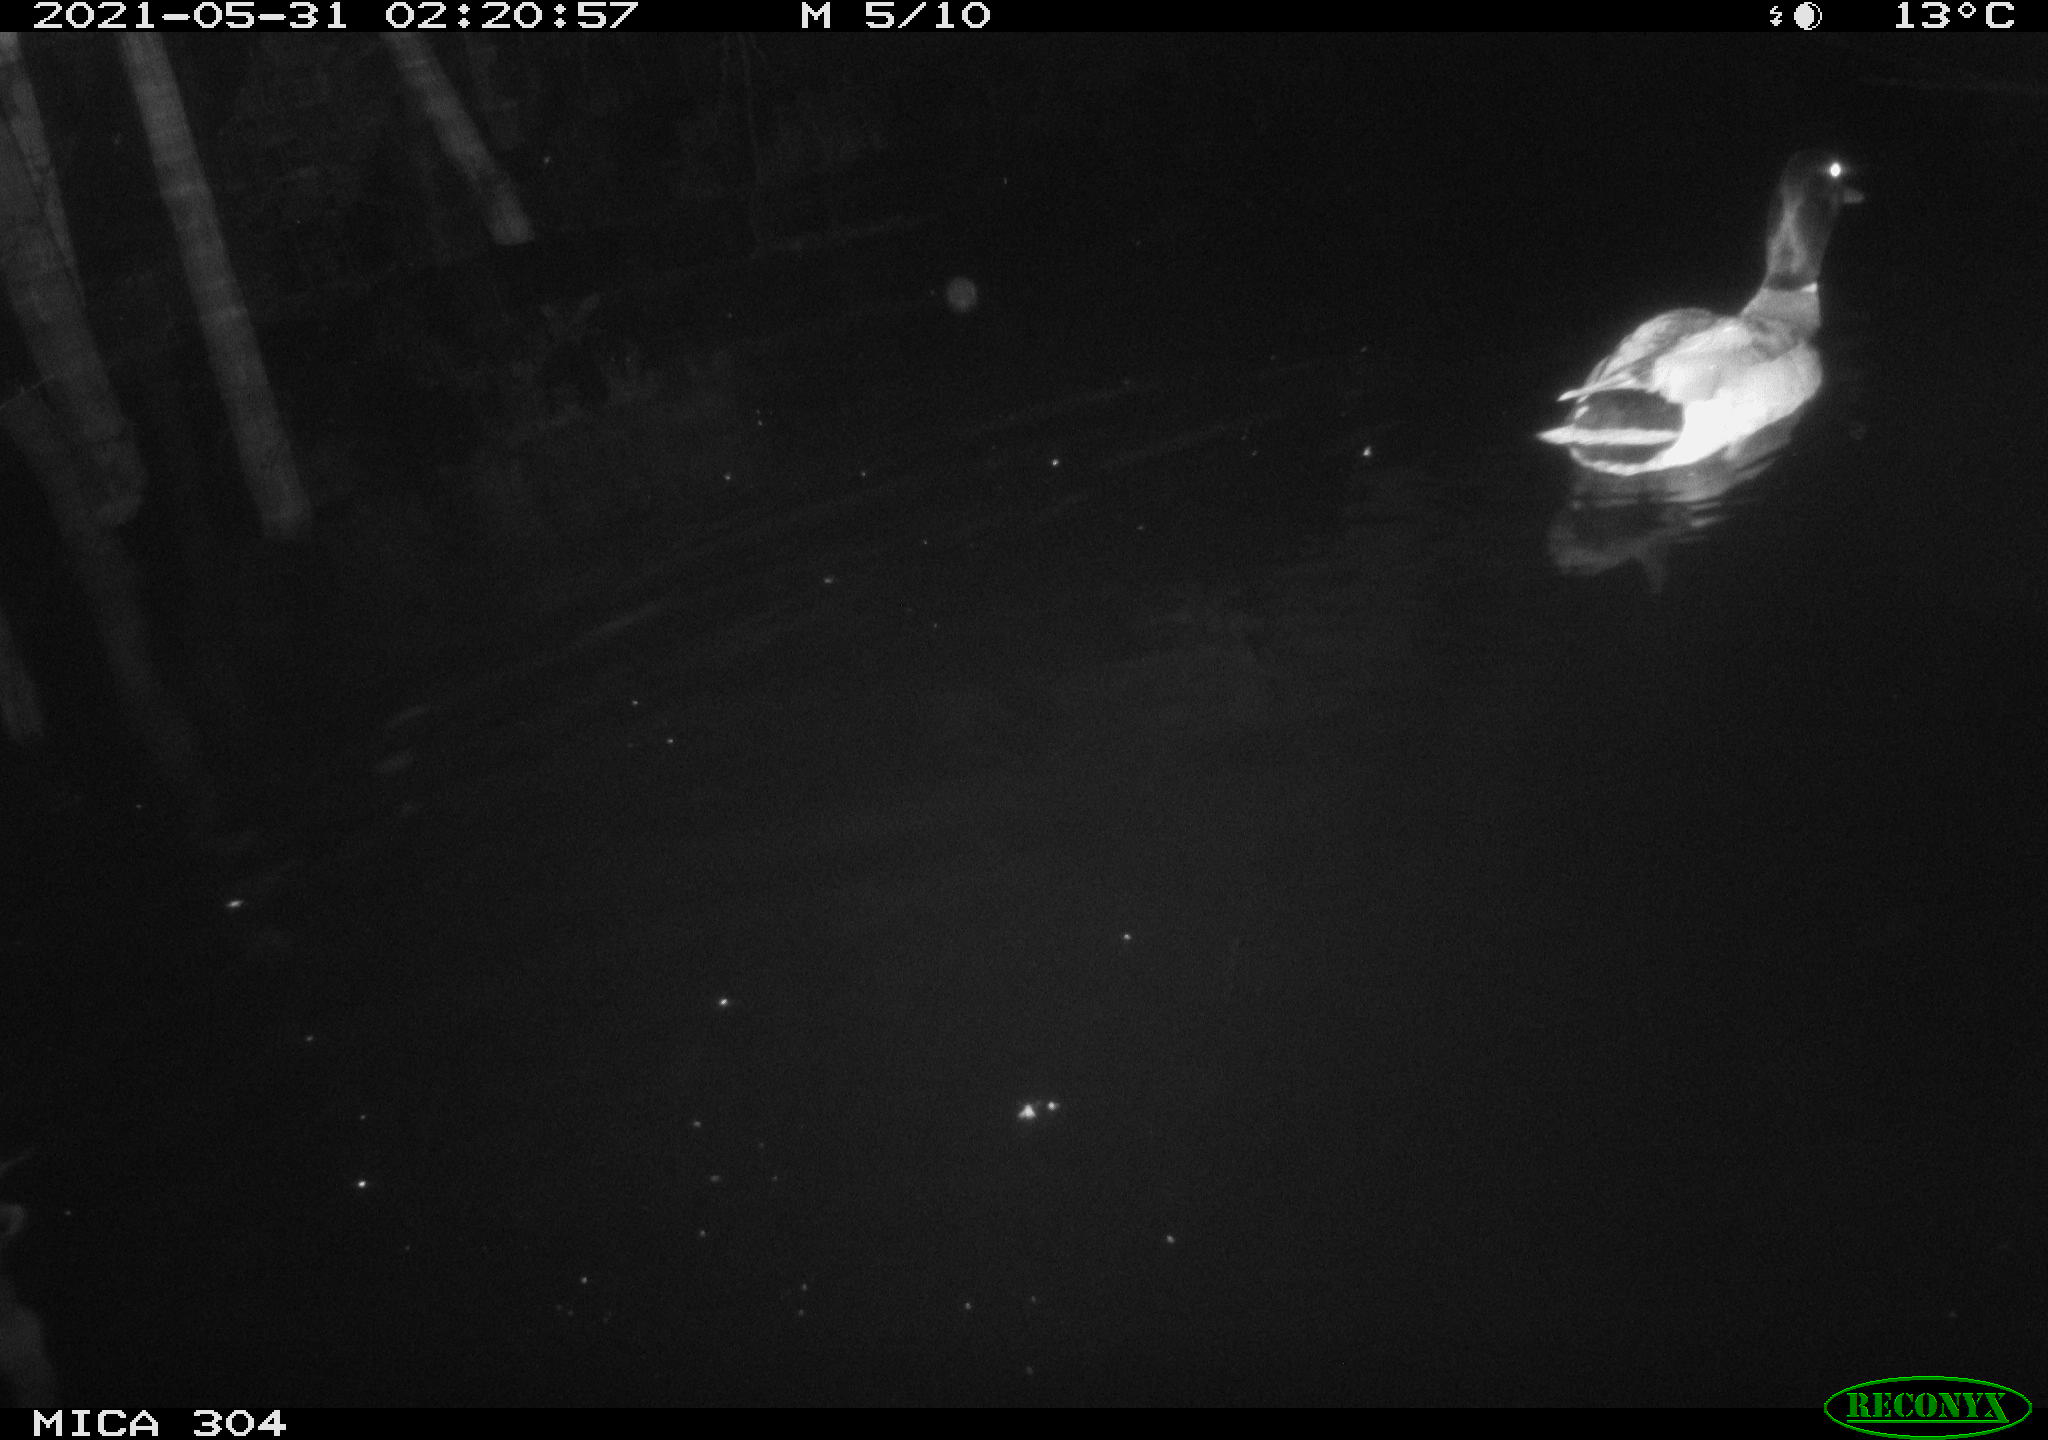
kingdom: Animalia
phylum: Chordata
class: Aves
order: Anseriformes
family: Anatidae
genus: Anas
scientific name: Anas platyrhynchos
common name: Mallard
